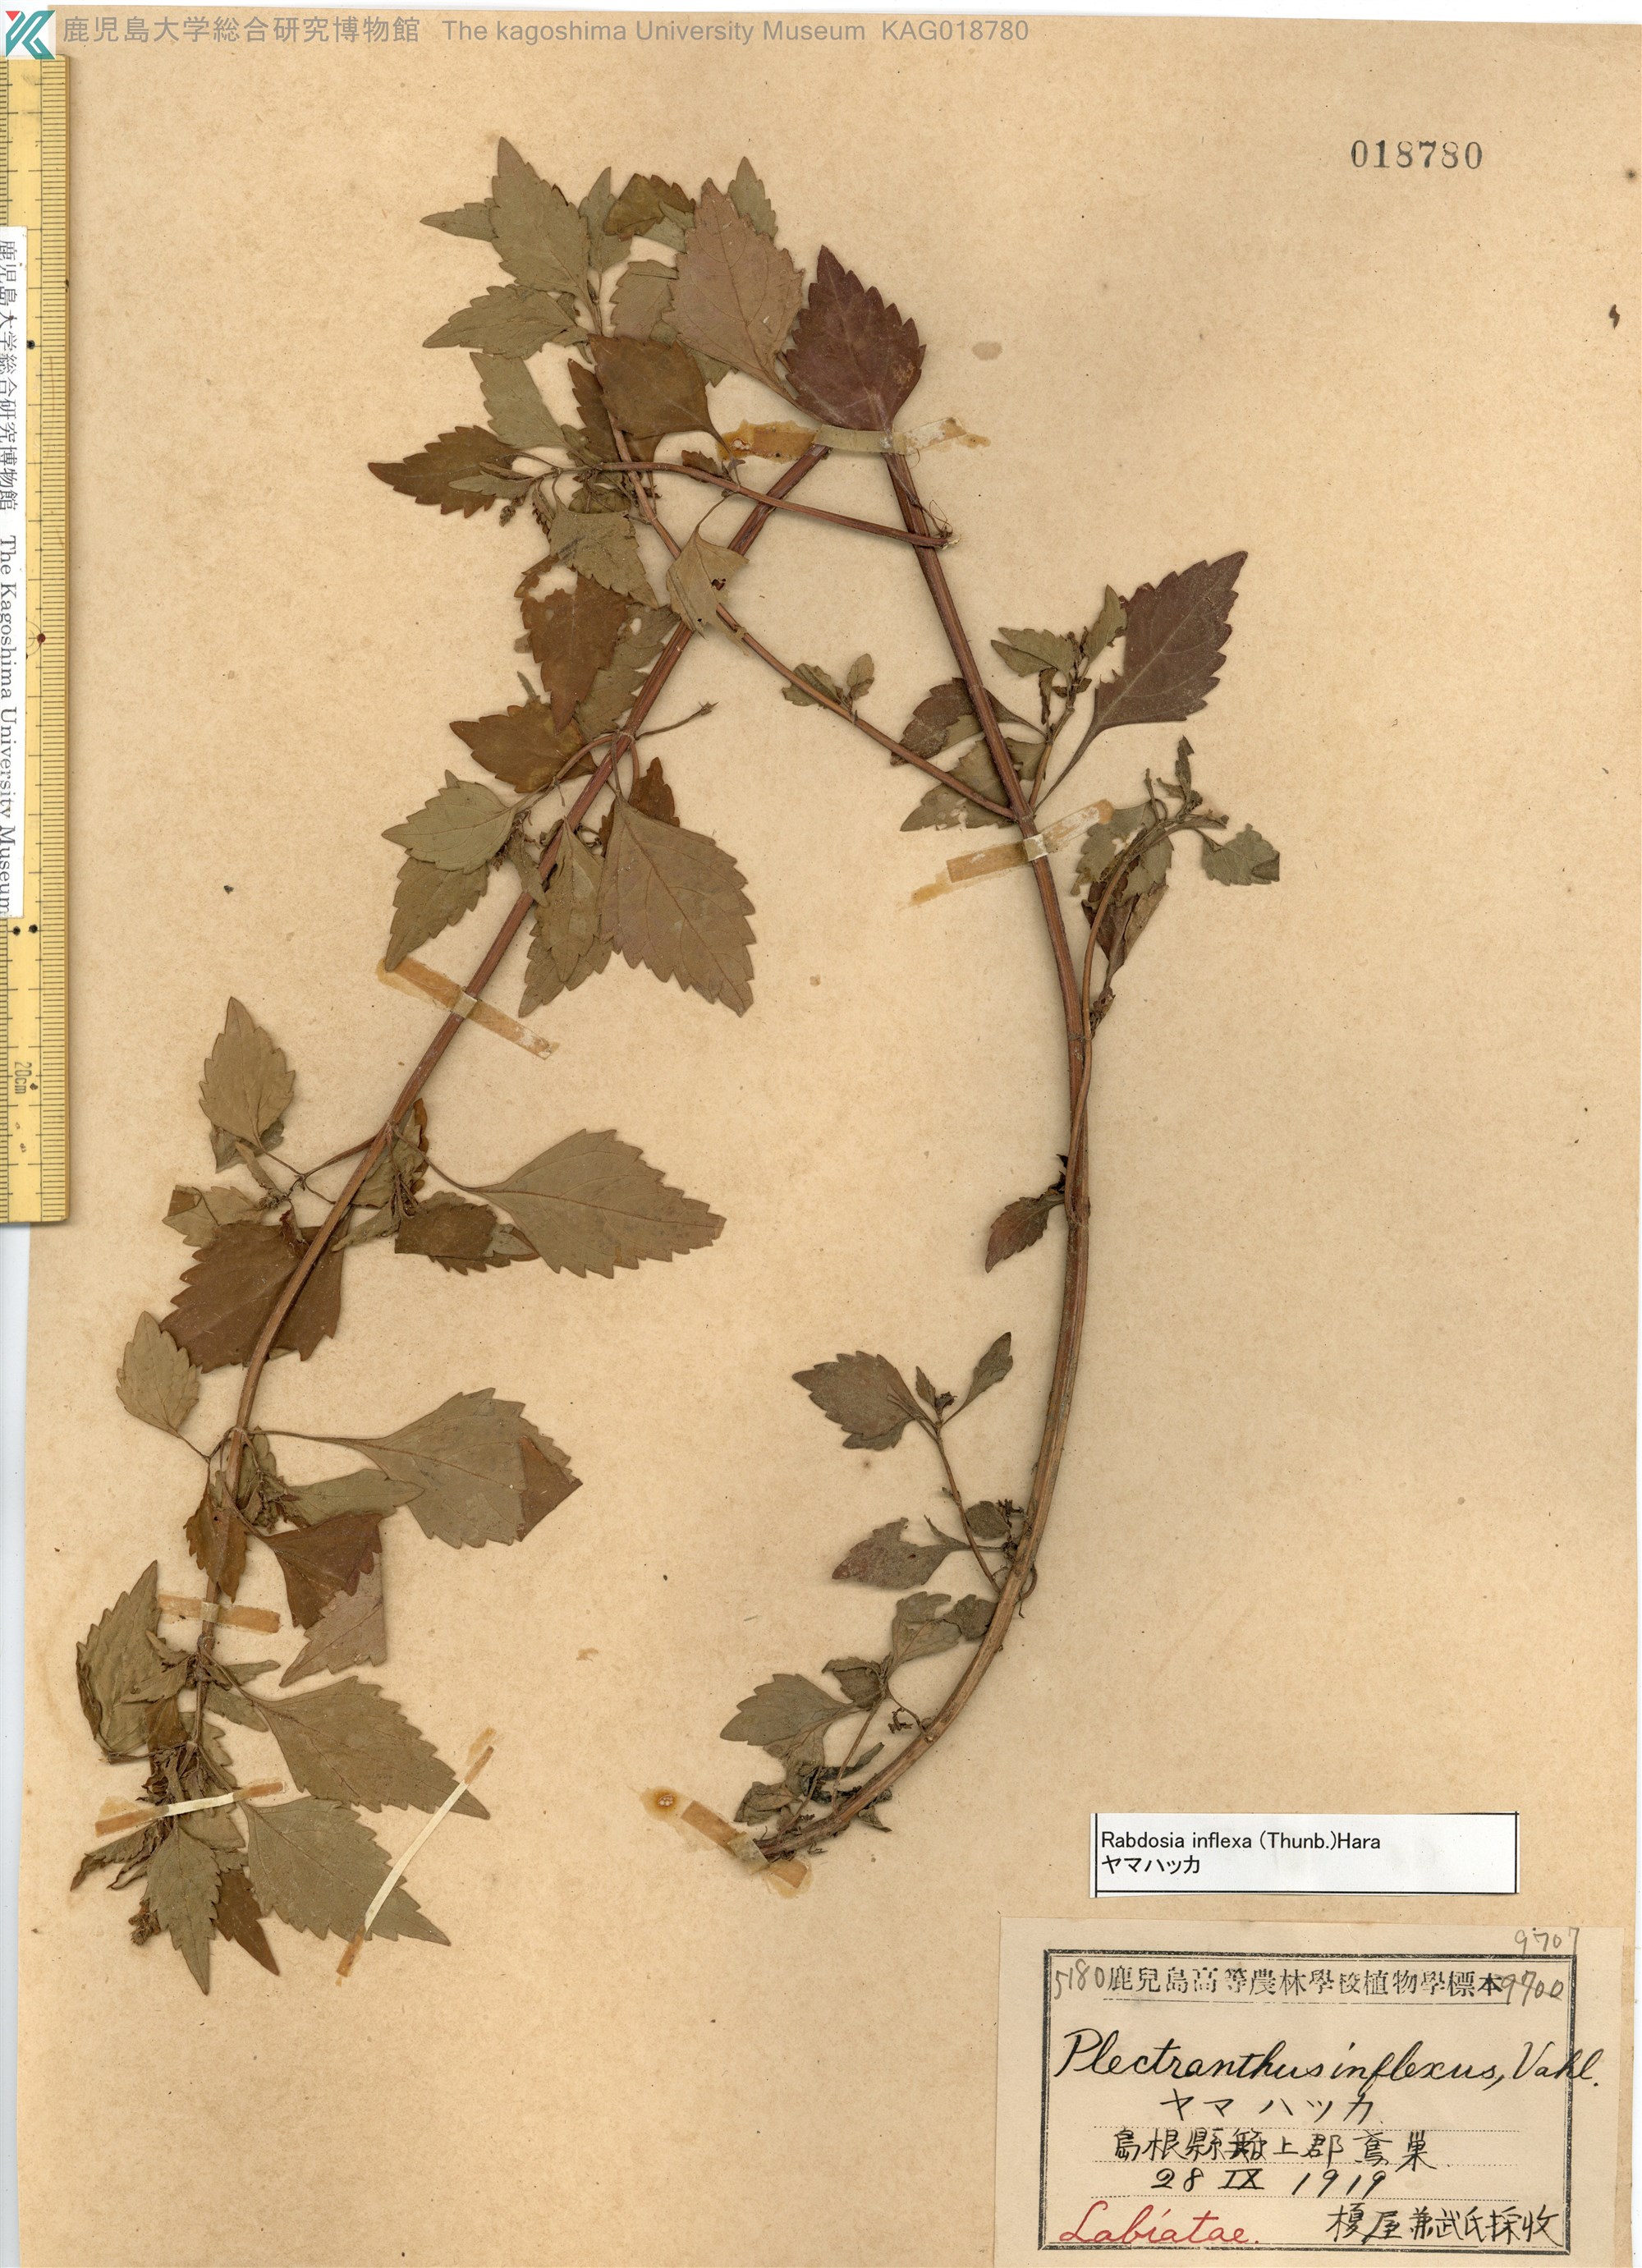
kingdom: Plantae
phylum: Tracheophyta
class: Magnoliopsida
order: Lamiales
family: Lamiaceae
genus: Isodon
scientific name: Isodon inflexus
